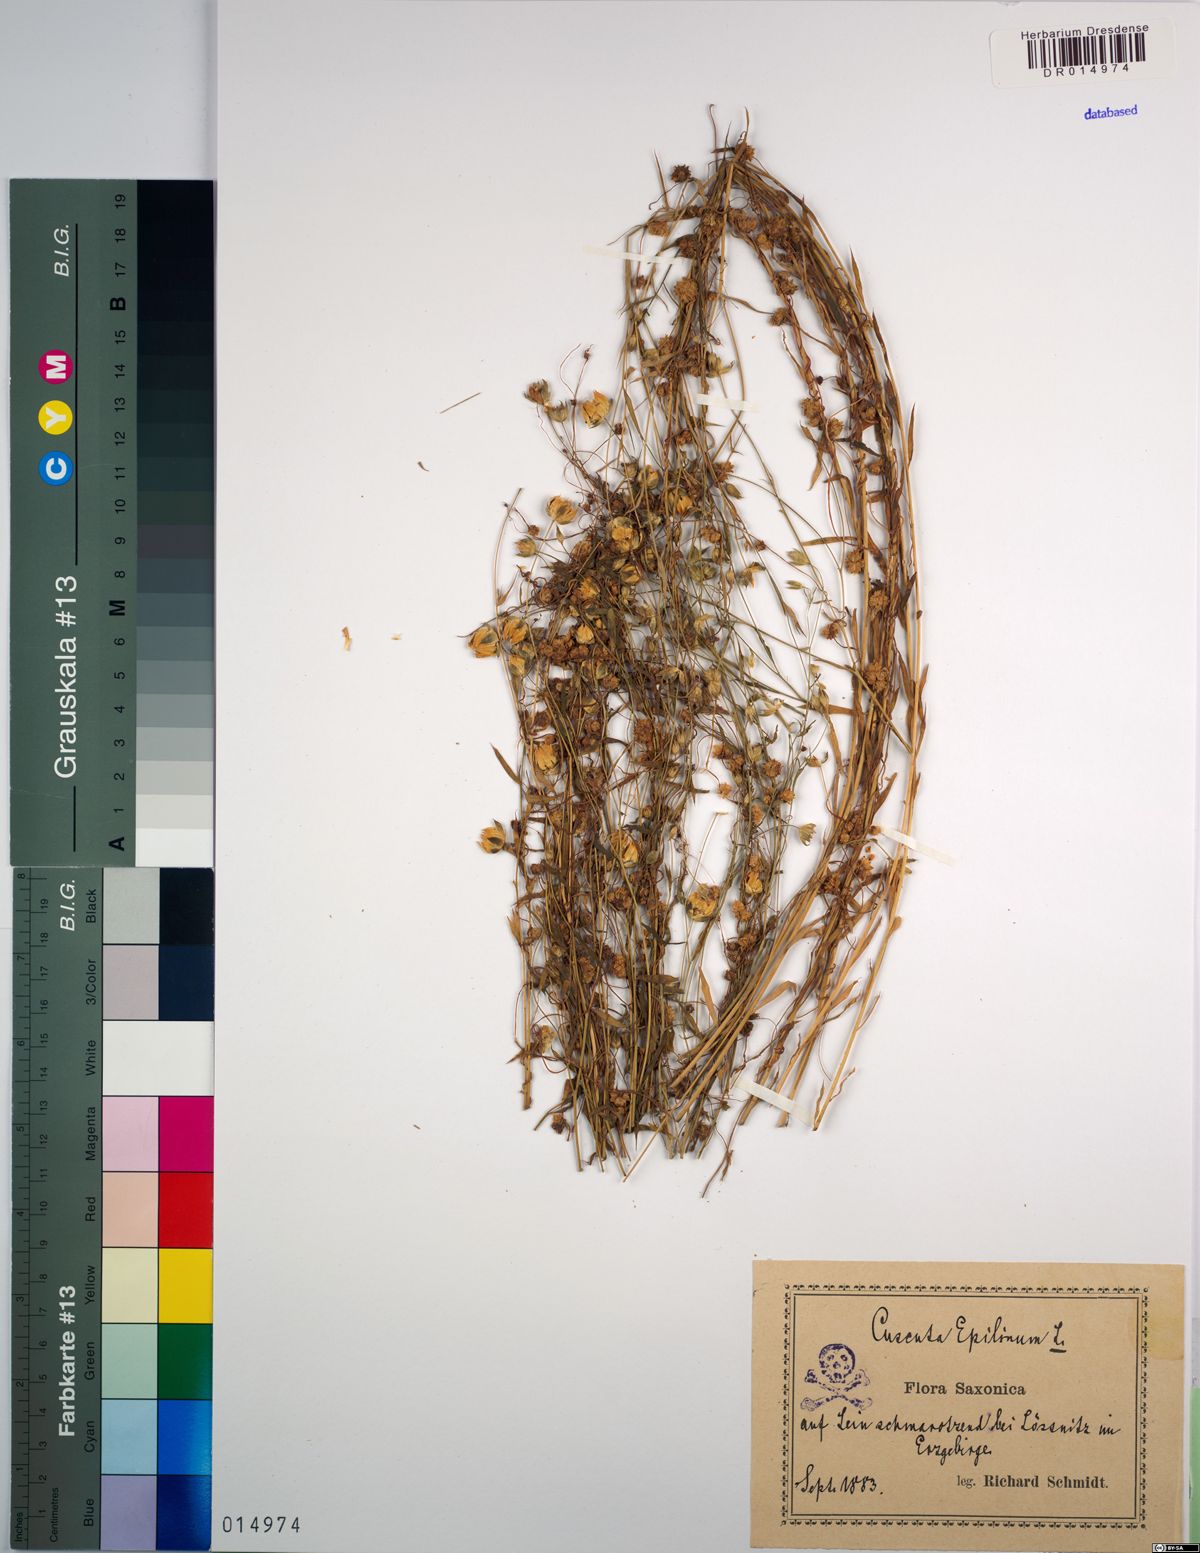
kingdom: Plantae
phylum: Tracheophyta
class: Magnoliopsida
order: Solanales
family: Convolvulaceae
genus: Cuscuta
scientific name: Cuscuta epilinum
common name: Flax dodder
